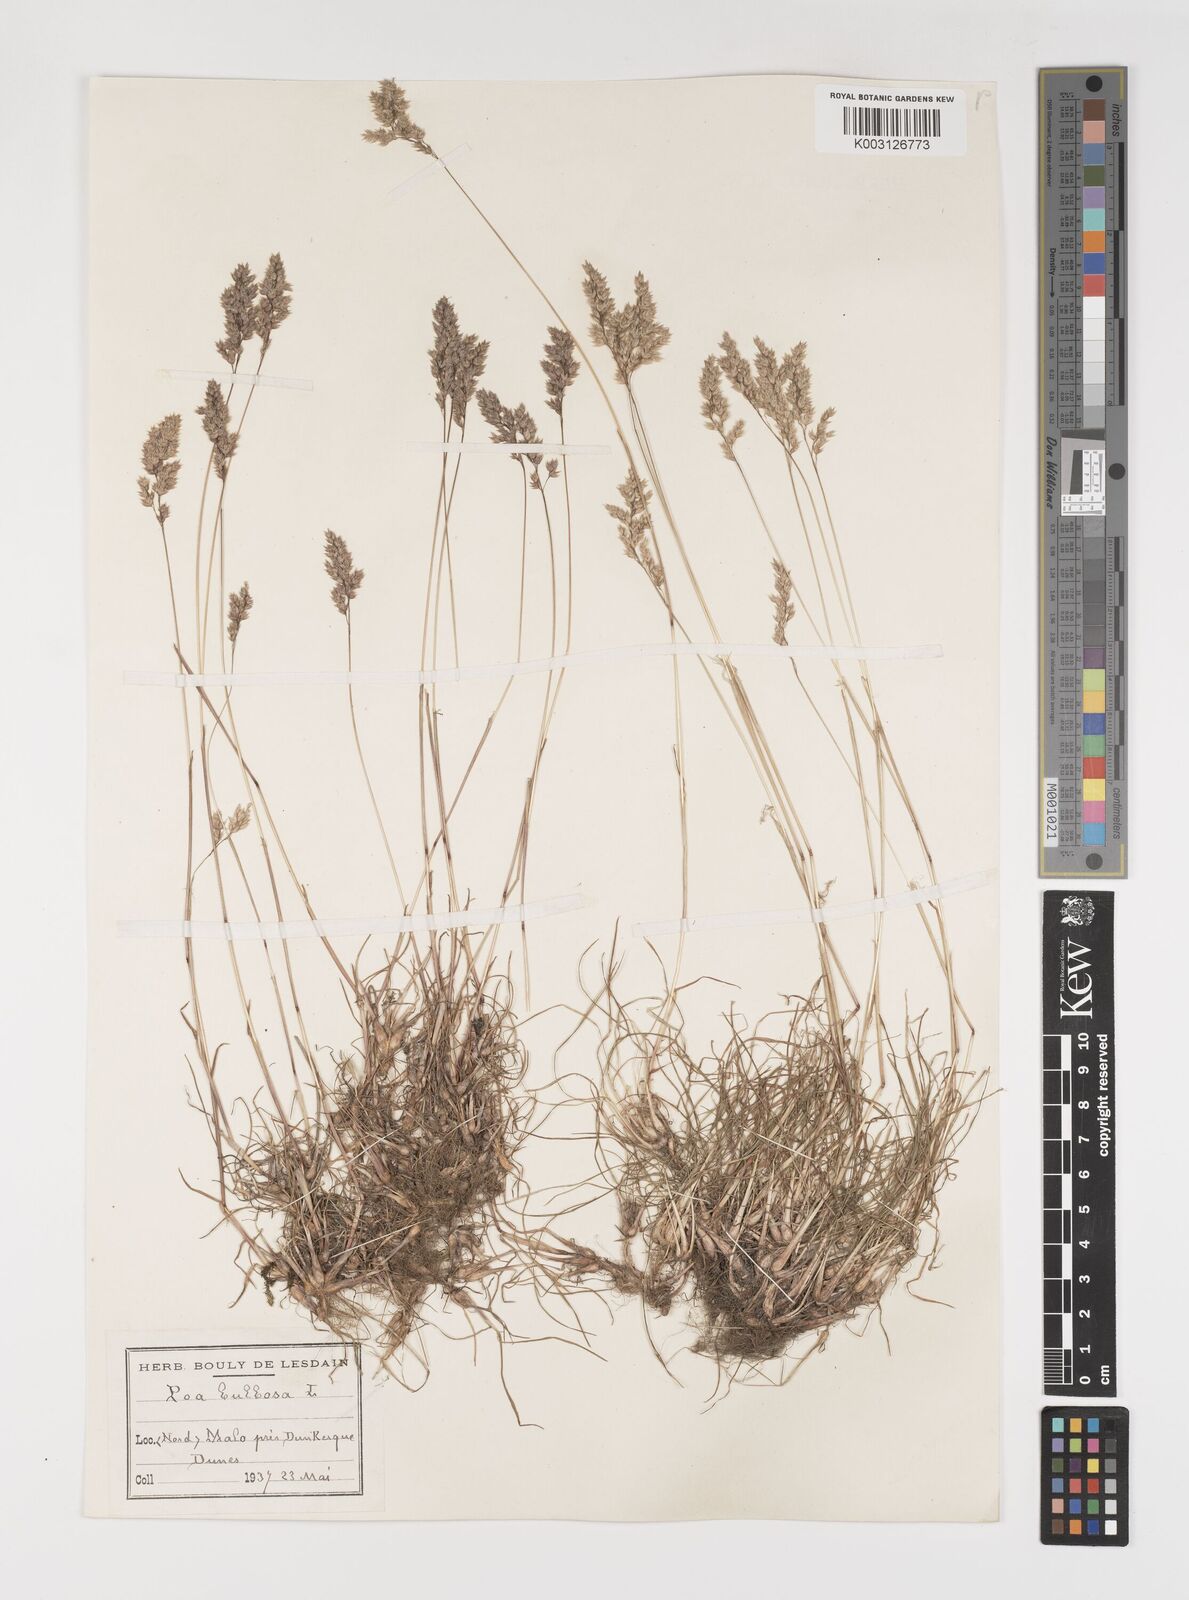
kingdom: Plantae
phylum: Tracheophyta
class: Liliopsida
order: Poales
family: Poaceae
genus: Poa
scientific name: Poa bulbosa
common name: Bulbous bluegrass
